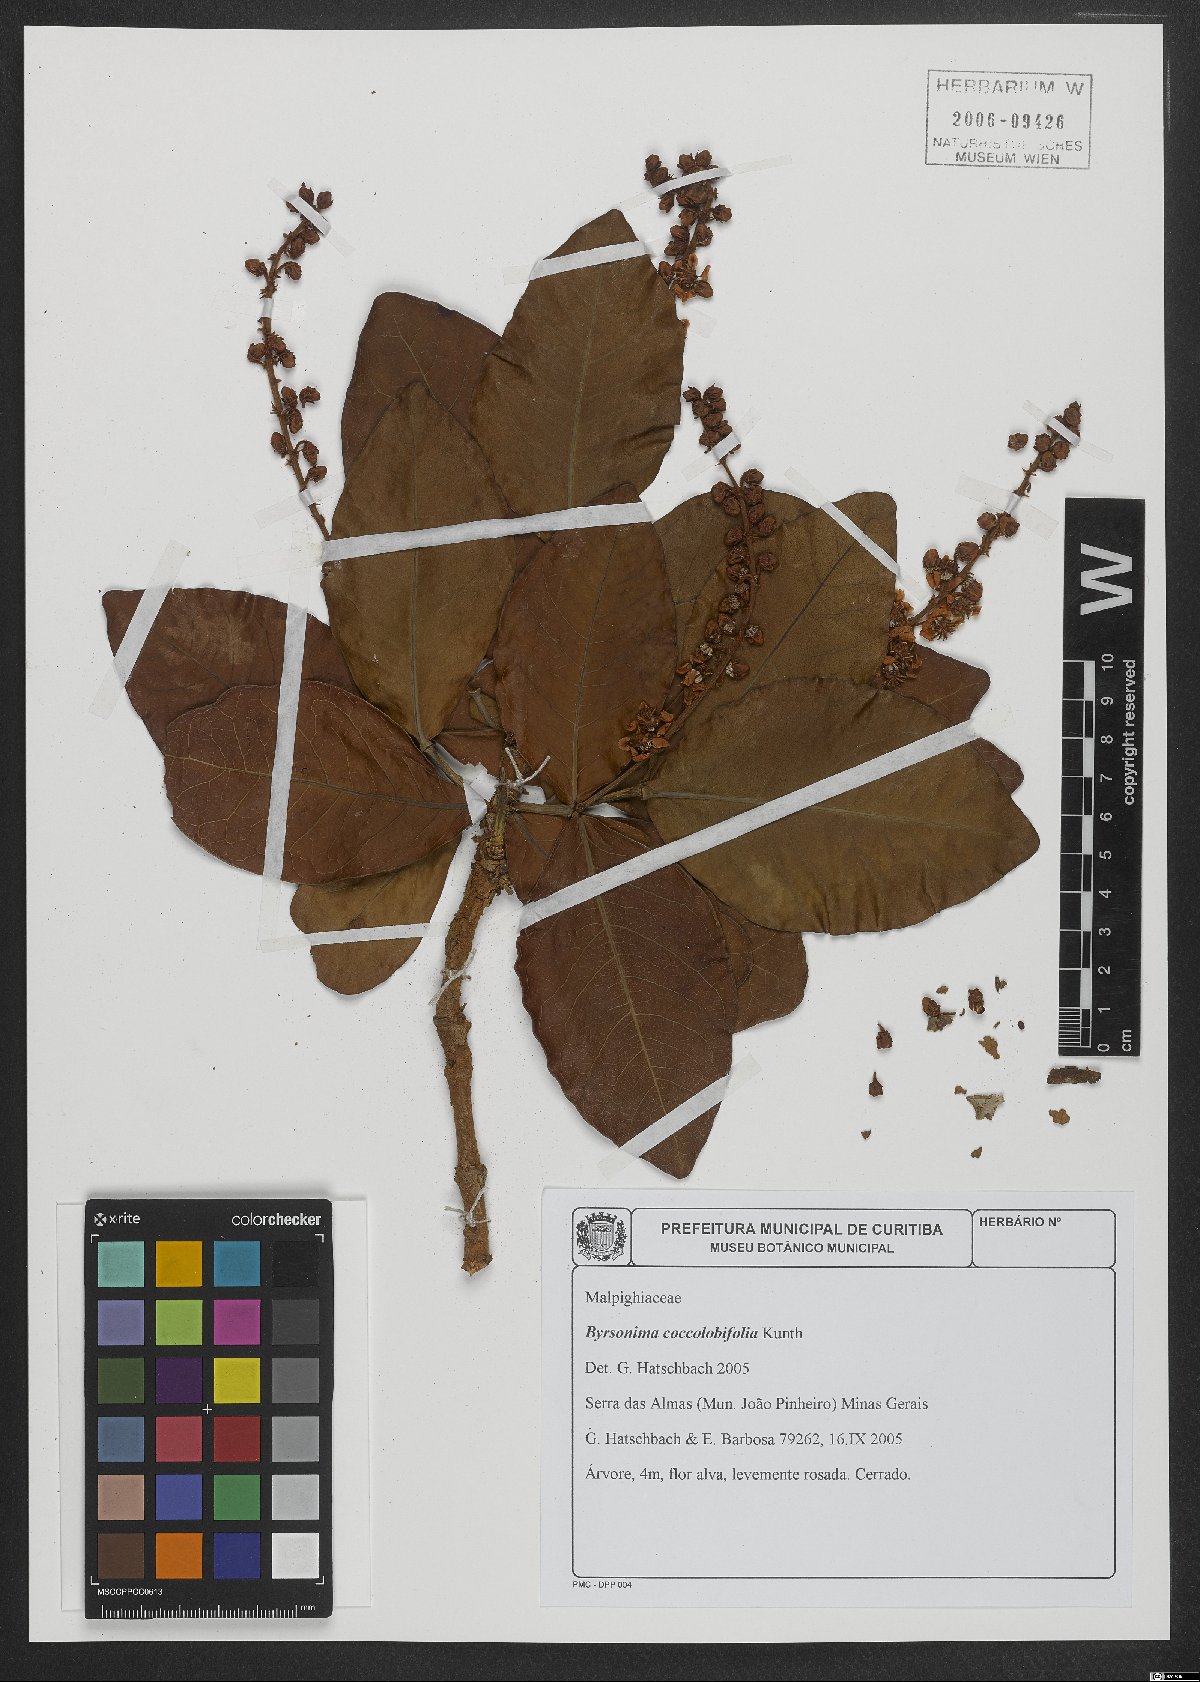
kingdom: Plantae
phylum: Tracheophyta
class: Magnoliopsida
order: Malpighiales
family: Malpighiaceae
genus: Byrsonima
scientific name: Byrsonima coccolobifolia
